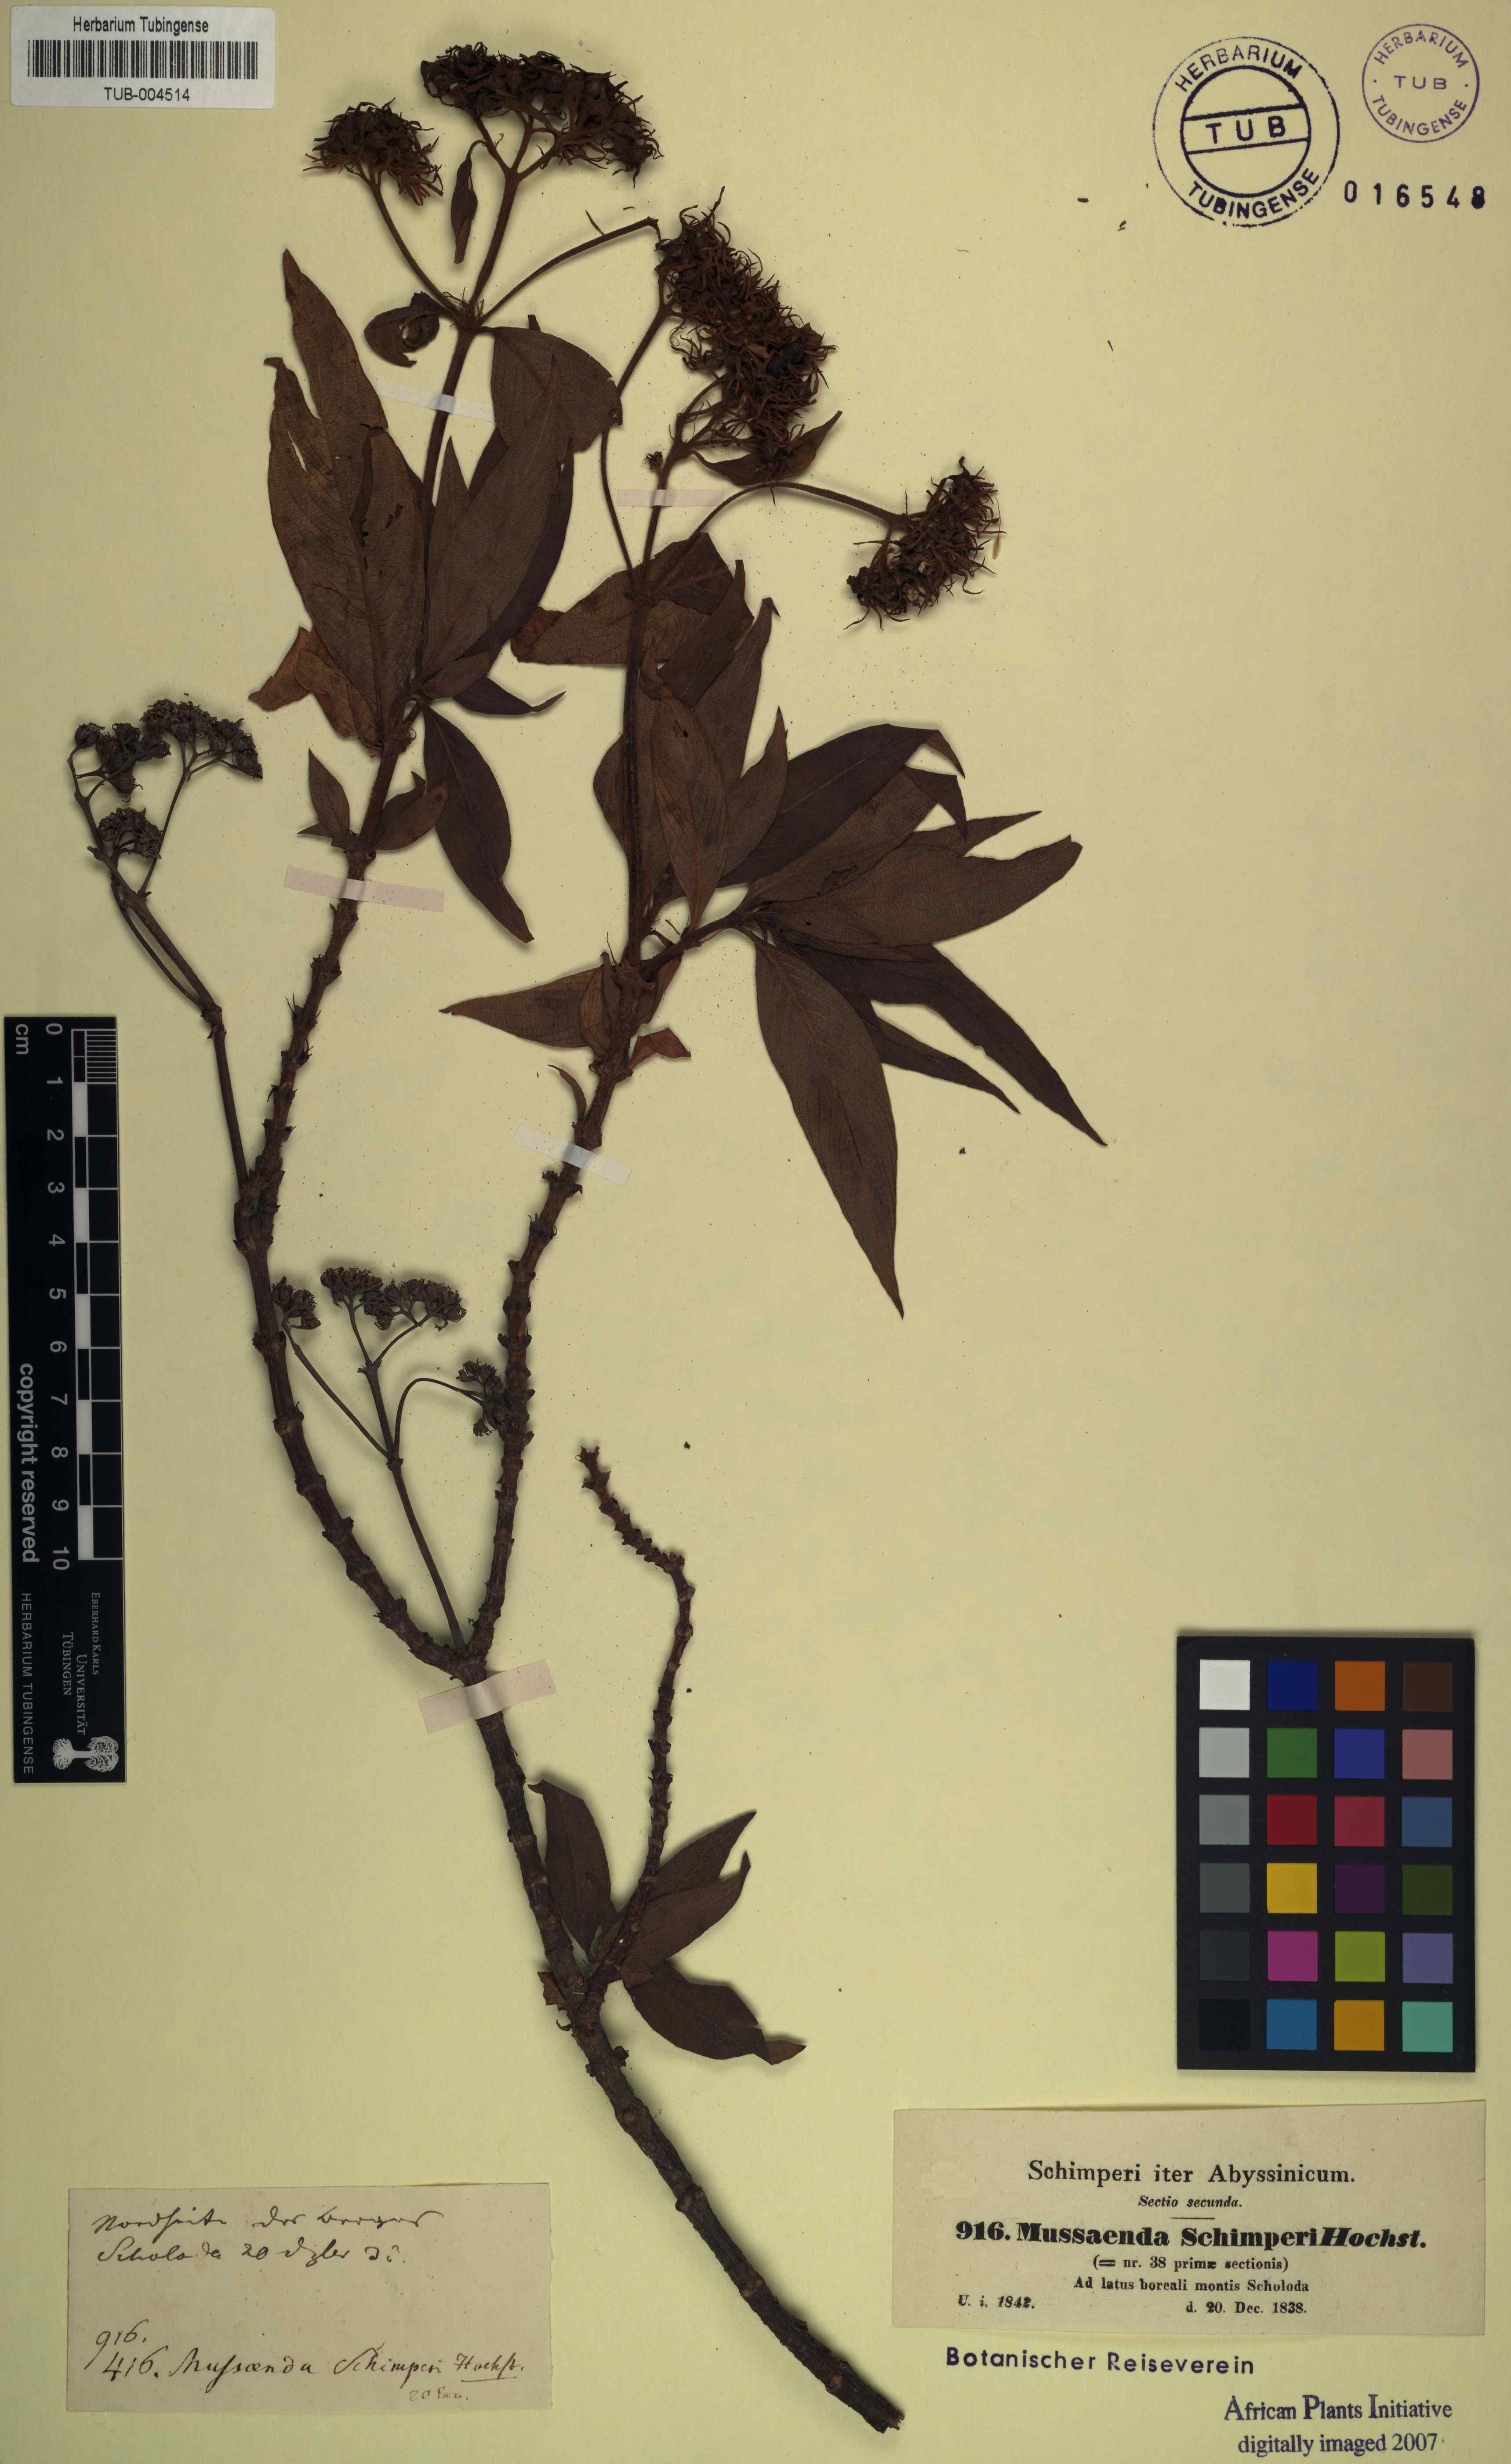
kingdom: Plantae
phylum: Tracheophyta
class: Magnoliopsida
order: Gentianales
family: Rubiaceae
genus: Phyllopentas
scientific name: Phyllopentas schimperi
